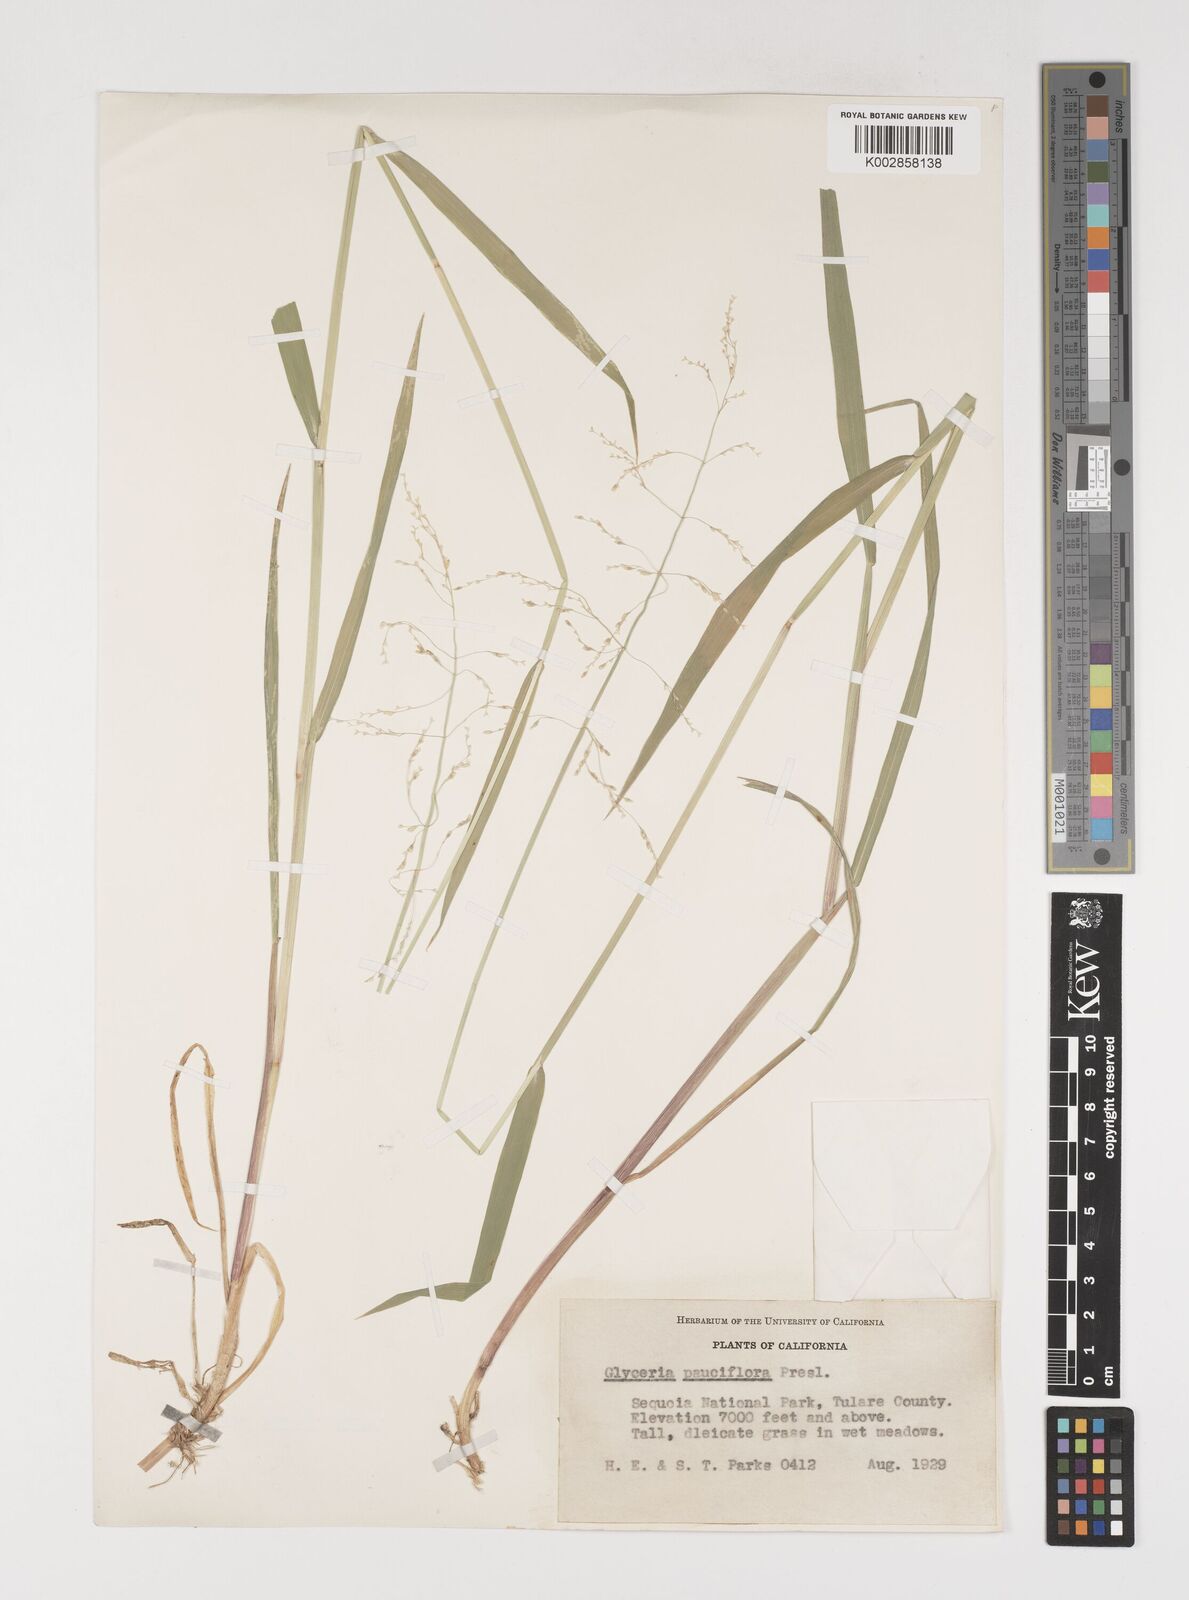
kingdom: Plantae
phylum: Tracheophyta
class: Liliopsida
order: Poales
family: Poaceae
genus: Torreyochloa
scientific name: Torreyochloa pallida
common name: Pale false mannagrass
